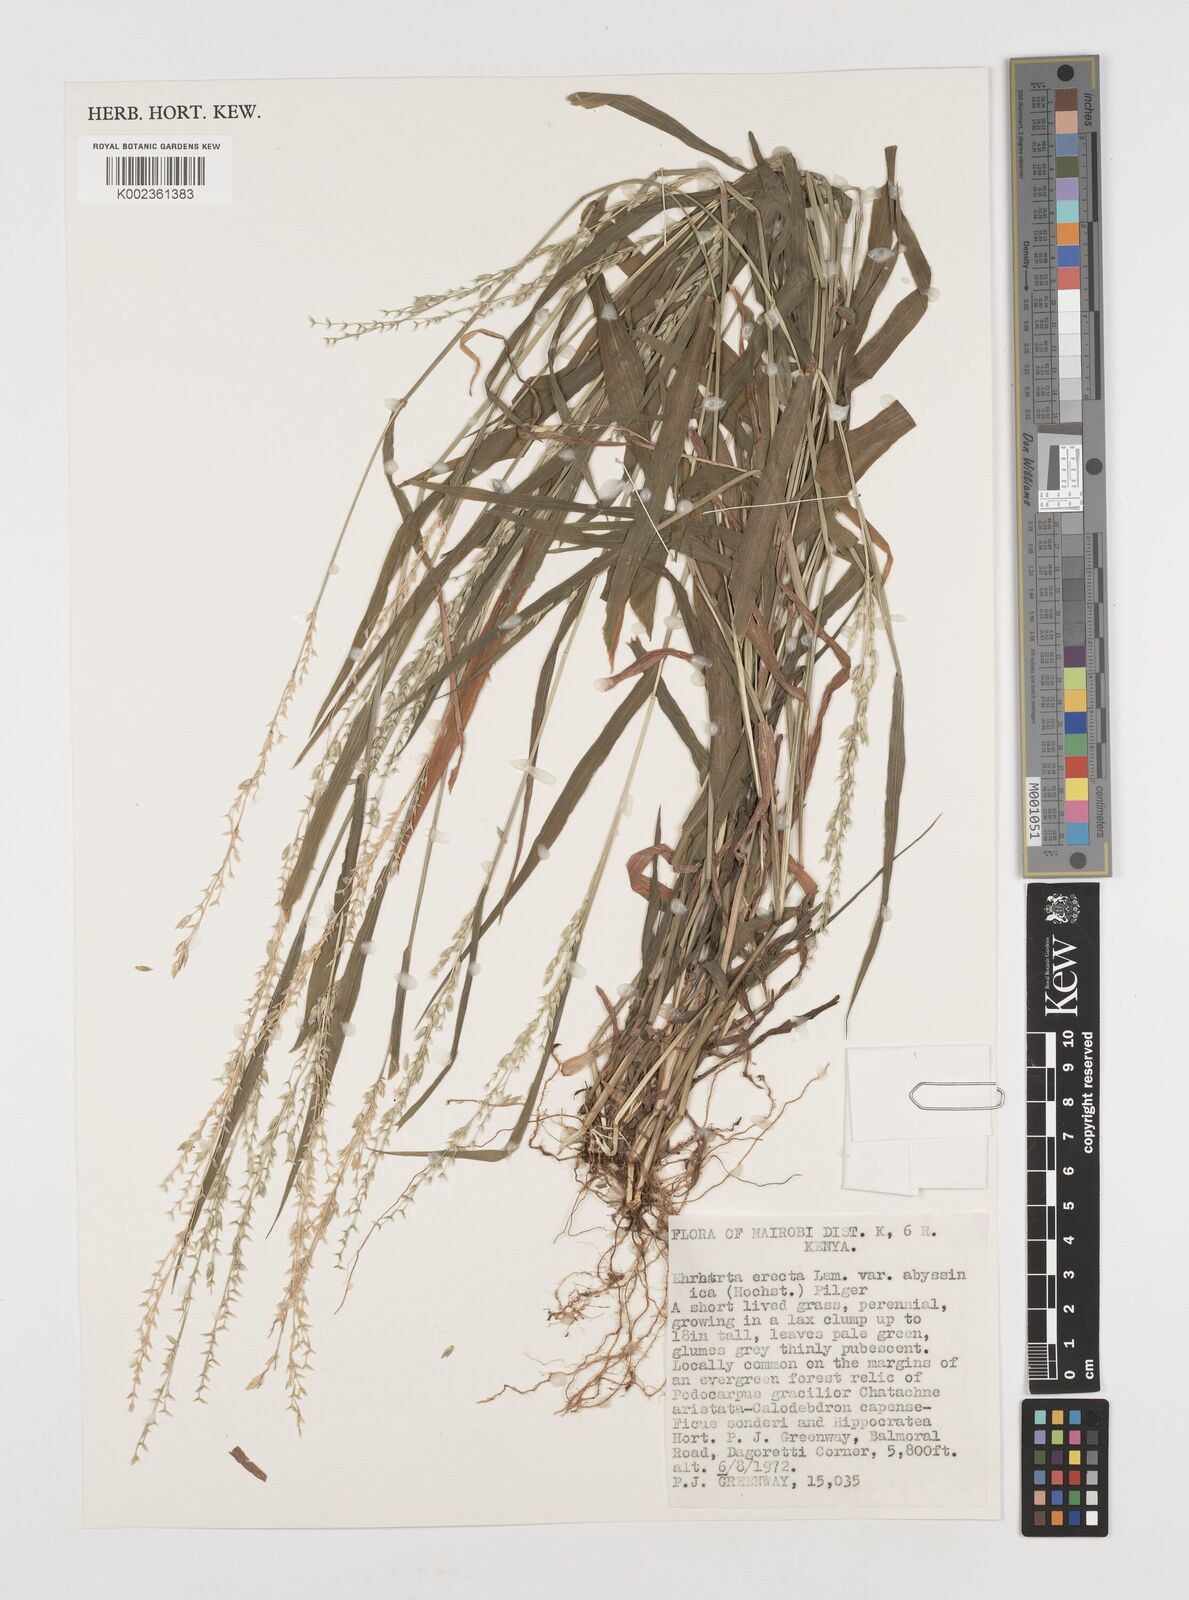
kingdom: Plantae
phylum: Tracheophyta
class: Liliopsida
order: Poales
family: Poaceae
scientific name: Poaceae
